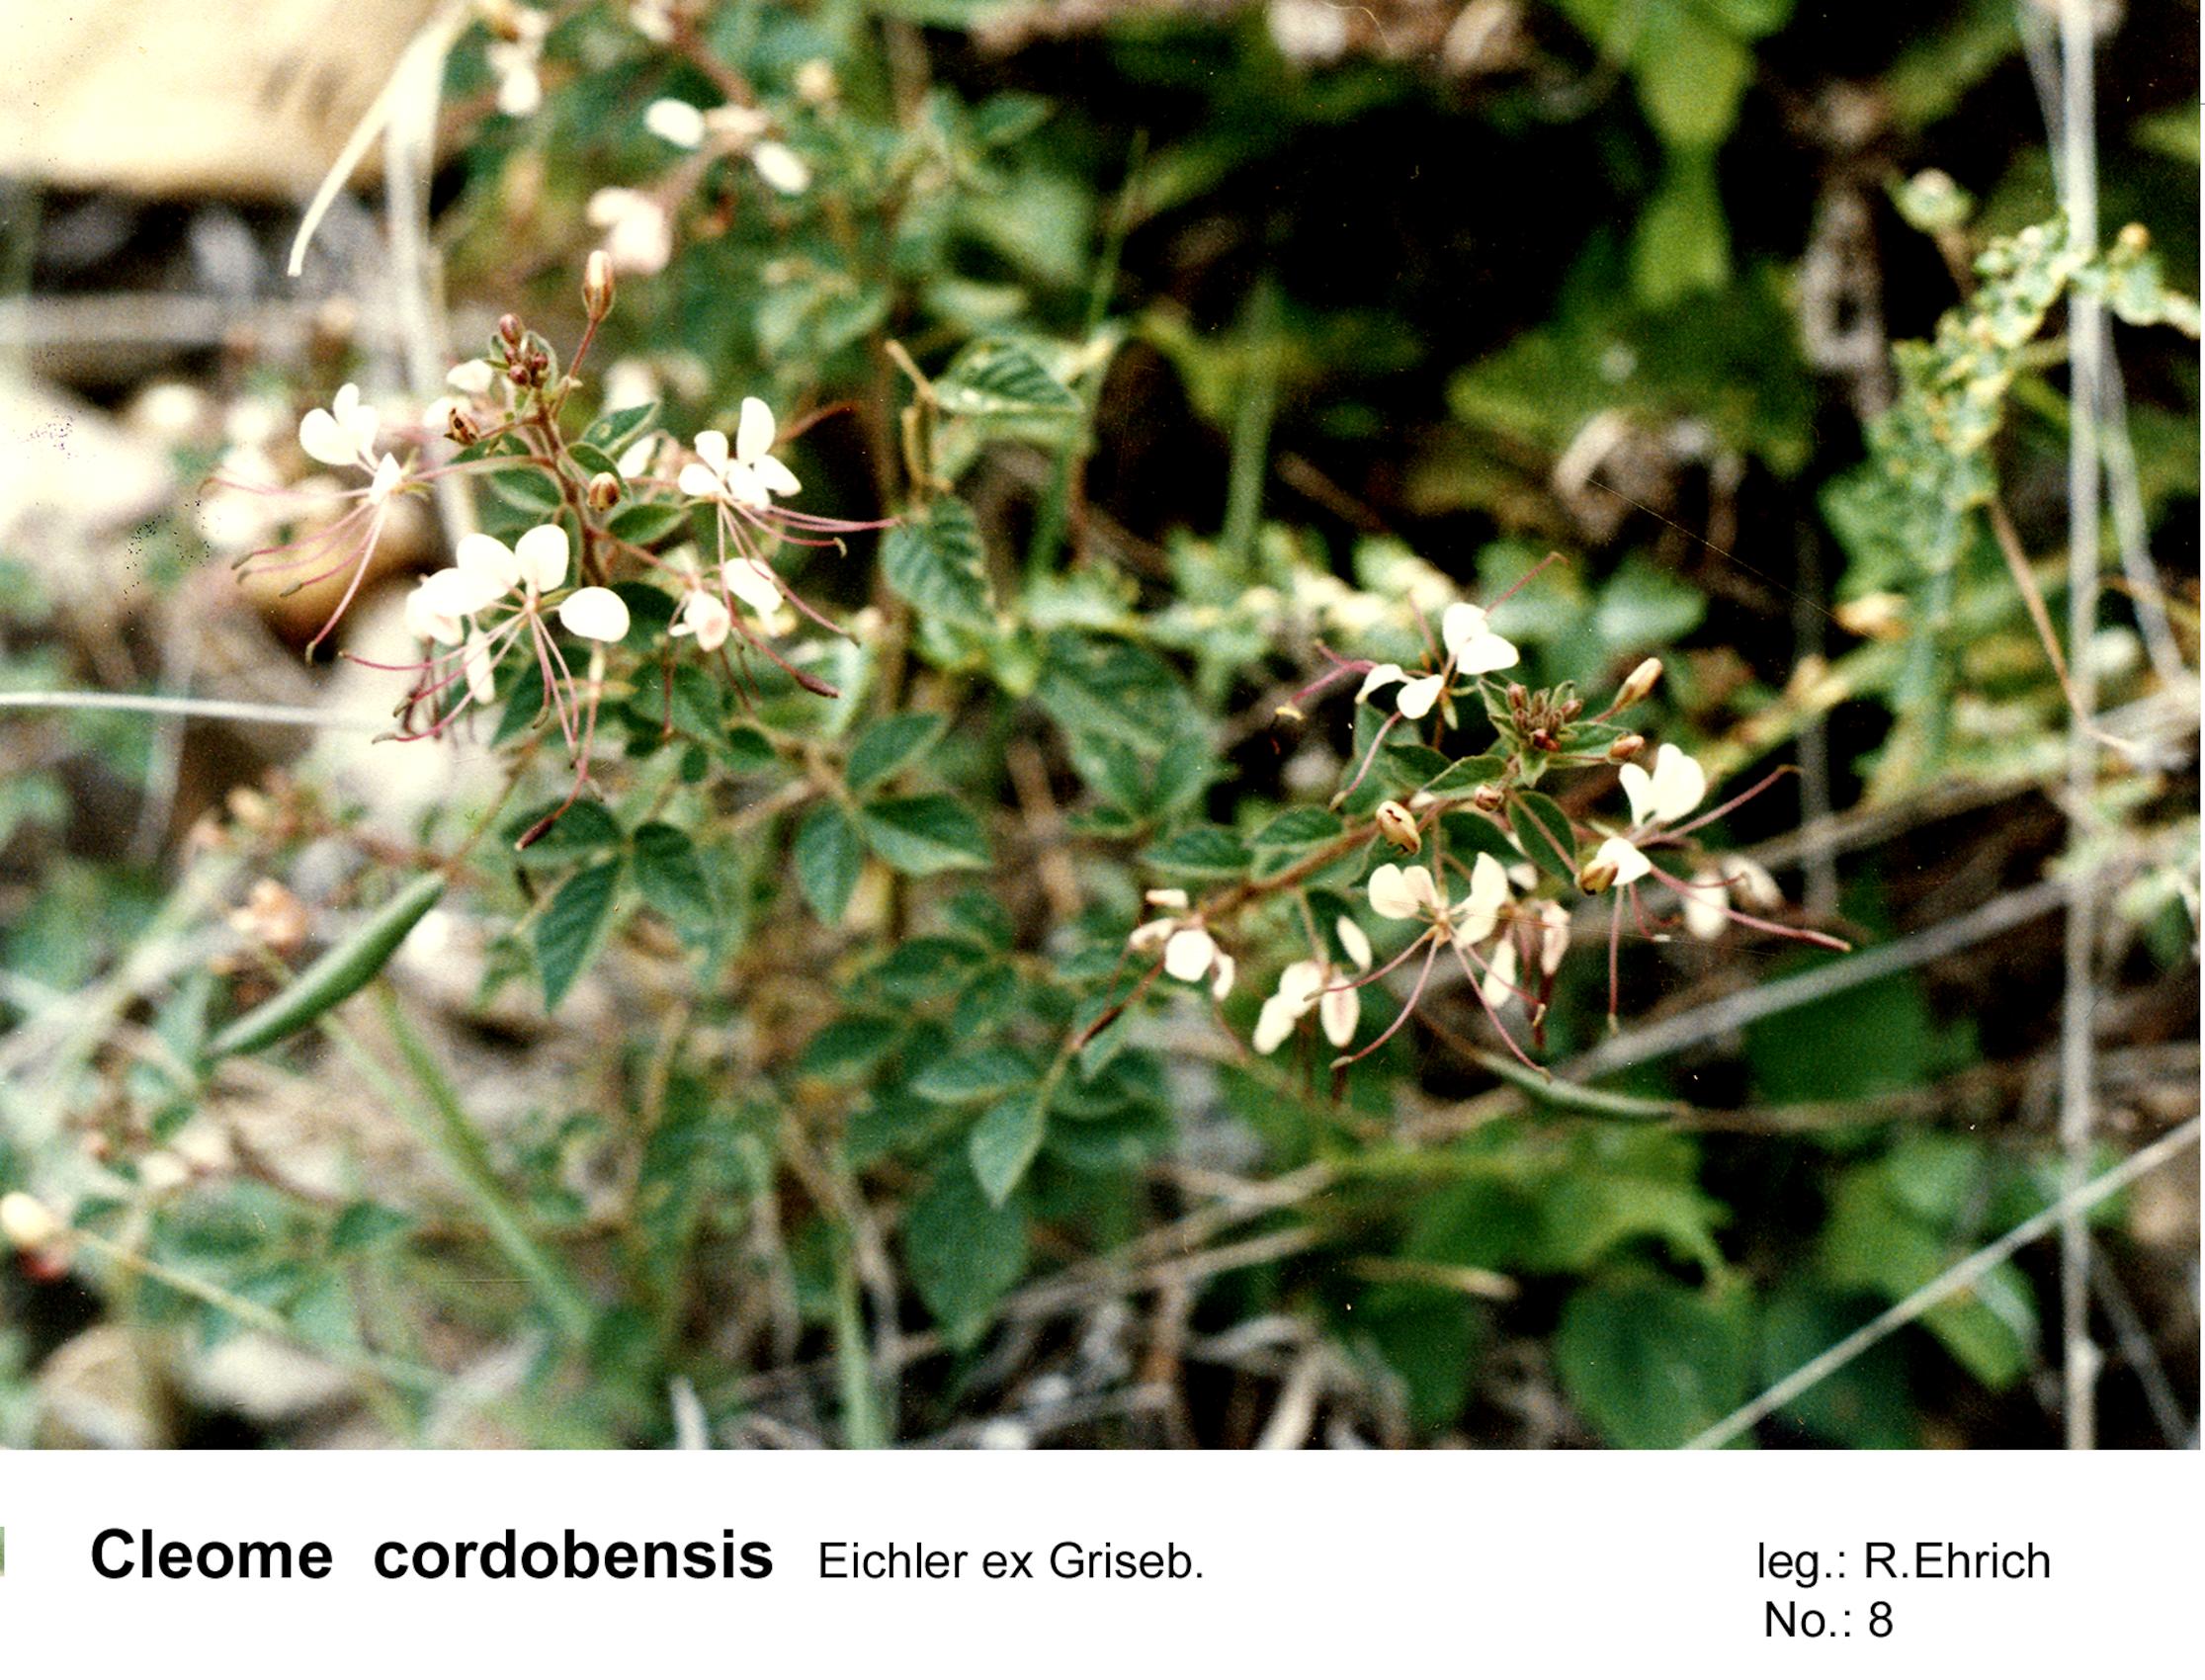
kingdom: Plantae
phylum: Tracheophyta
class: Magnoliopsida
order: Brassicales
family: Cleomaceae
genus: Tarenaya
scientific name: Tarenaya cordobensis
